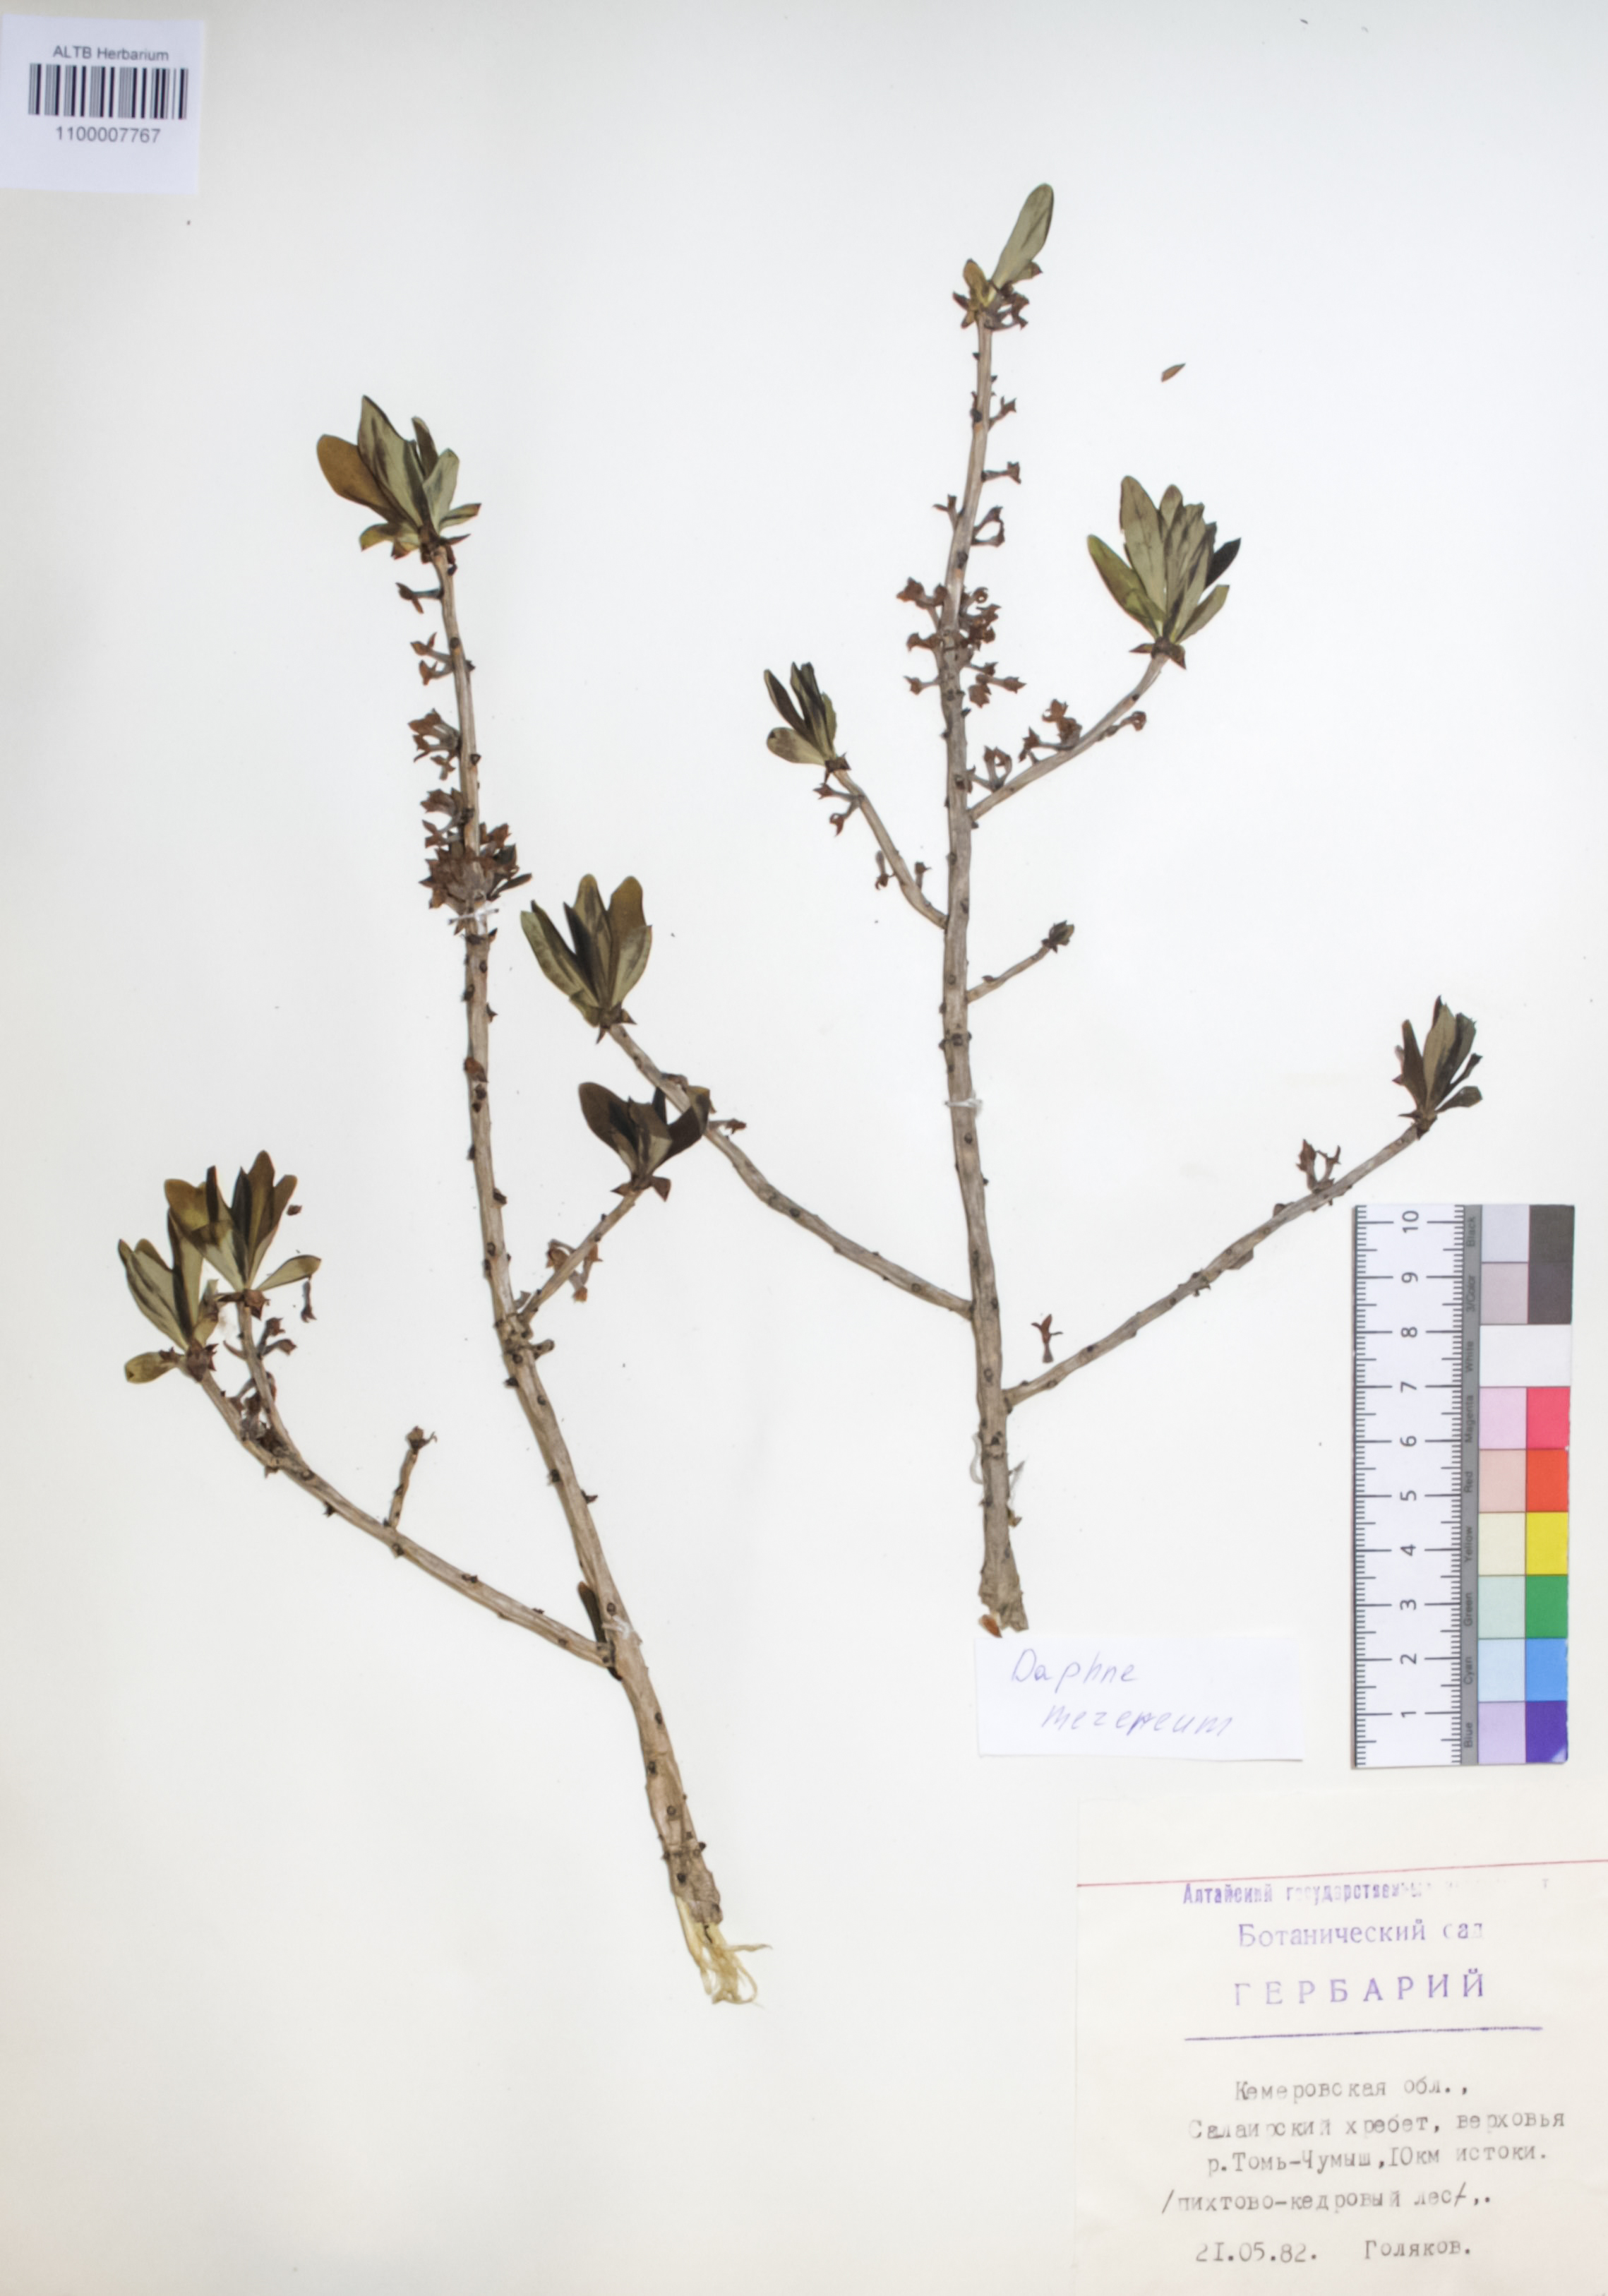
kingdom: Plantae
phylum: Tracheophyta
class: Magnoliopsida
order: Malvales
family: Thymelaeaceae
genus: Daphne
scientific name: Daphne mezereum
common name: Mezereon
